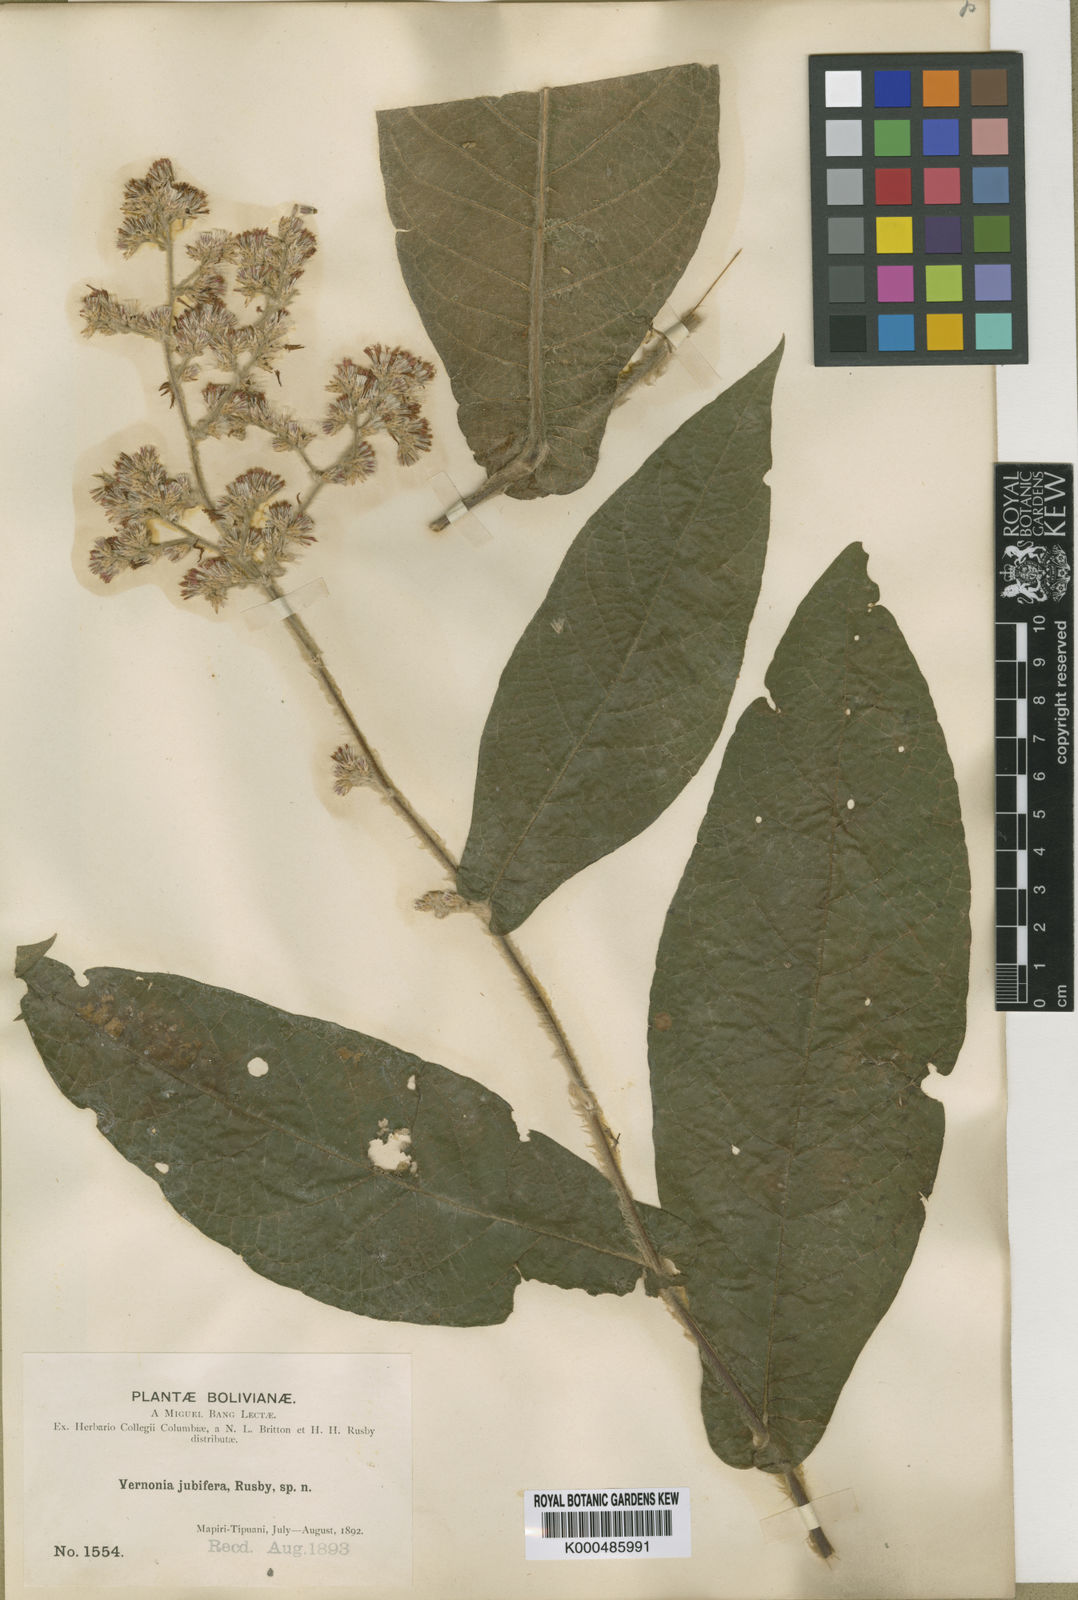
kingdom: Plantae
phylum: Tracheophyta
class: Magnoliopsida
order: Asterales
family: Asteraceae
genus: Critoniopsis
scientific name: Critoniopsis jubifera
